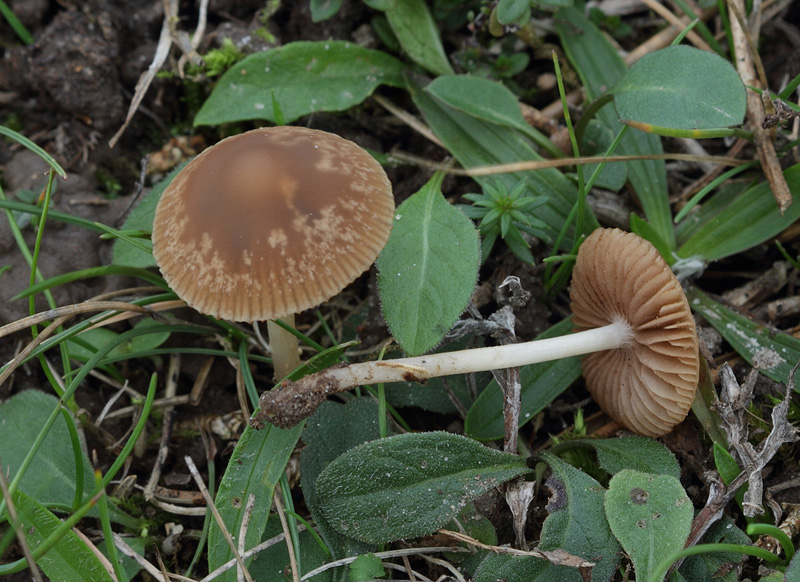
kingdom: Fungi
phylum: Basidiomycota
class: Agaricomycetes
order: Agaricales
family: Psathyrellaceae
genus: Psathyrella
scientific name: Psathyrella clivensis
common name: eng-mørkhat
